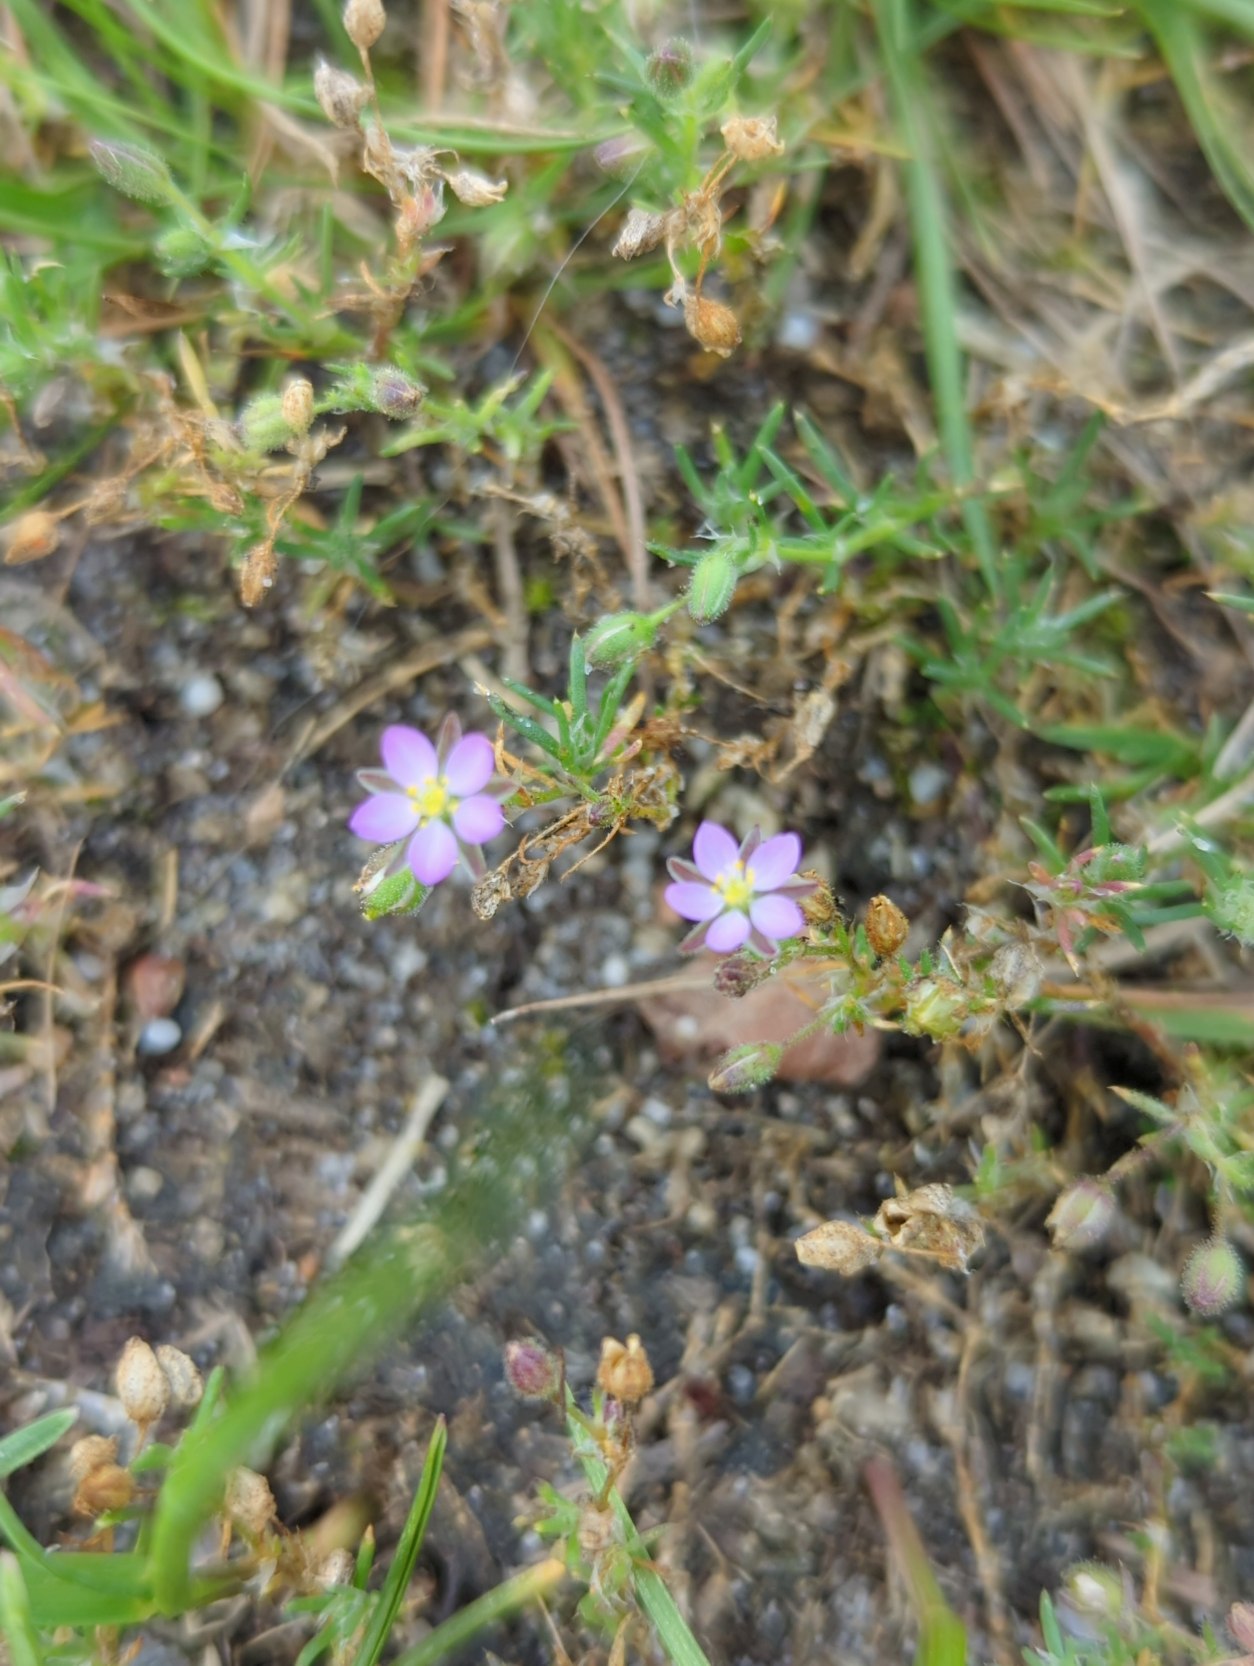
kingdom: Plantae
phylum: Tracheophyta
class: Magnoliopsida
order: Caryophyllales
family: Caryophyllaceae
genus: Spergularia
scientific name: Spergularia rubra
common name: Mark-hindeknæ
